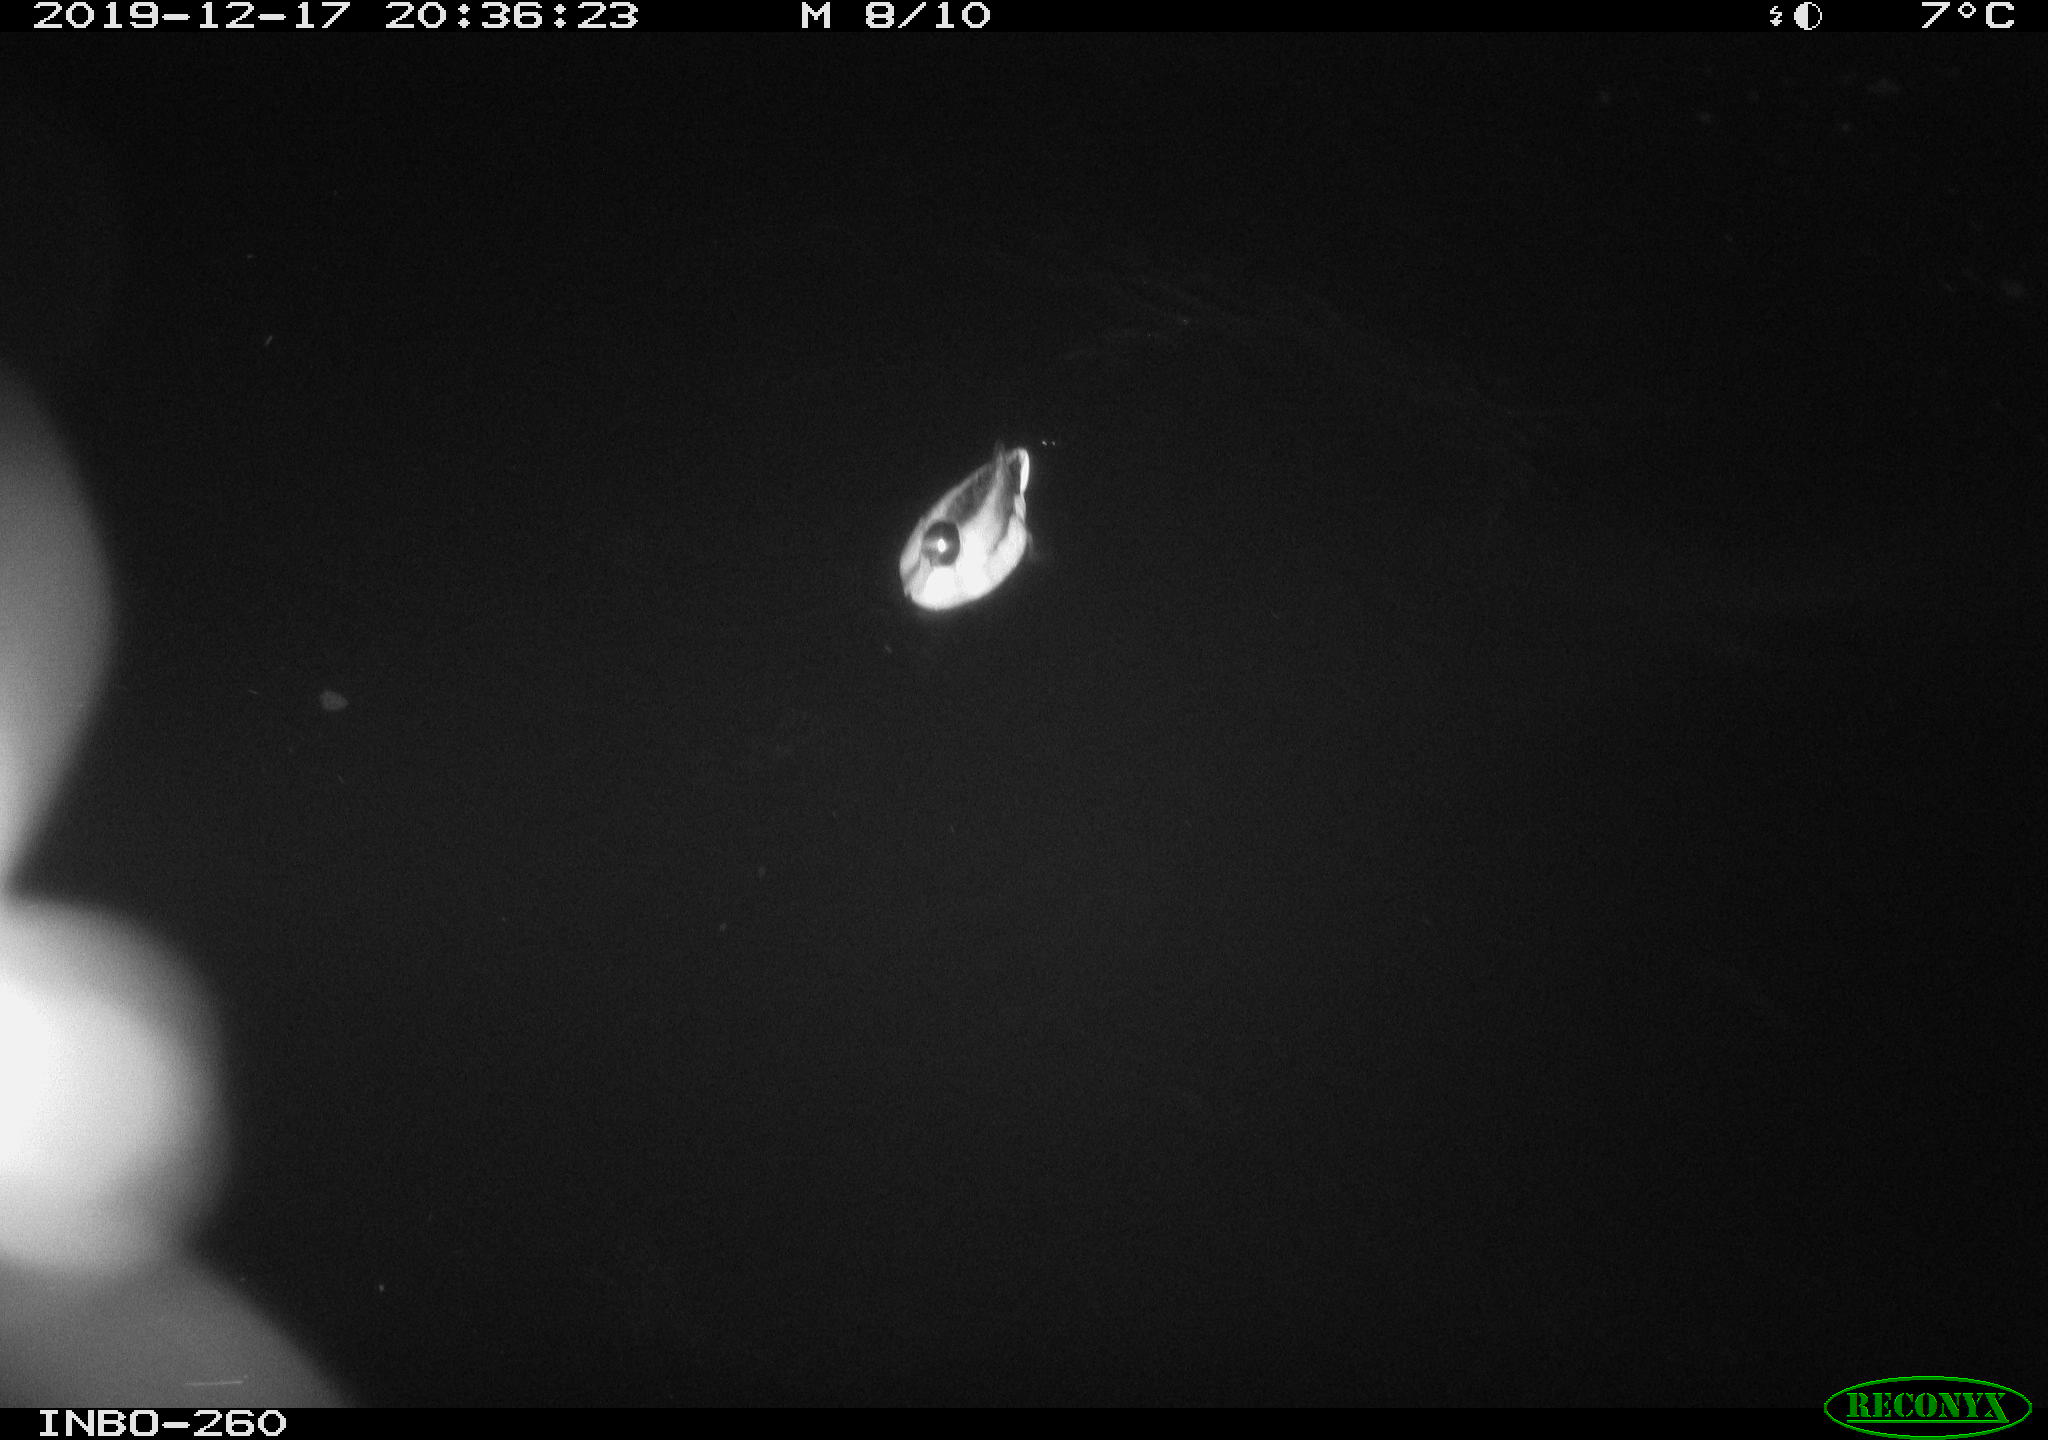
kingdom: Animalia
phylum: Chordata
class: Aves
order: Anseriformes
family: Anatidae
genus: Anas
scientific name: Anas platyrhynchos
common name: Mallard
